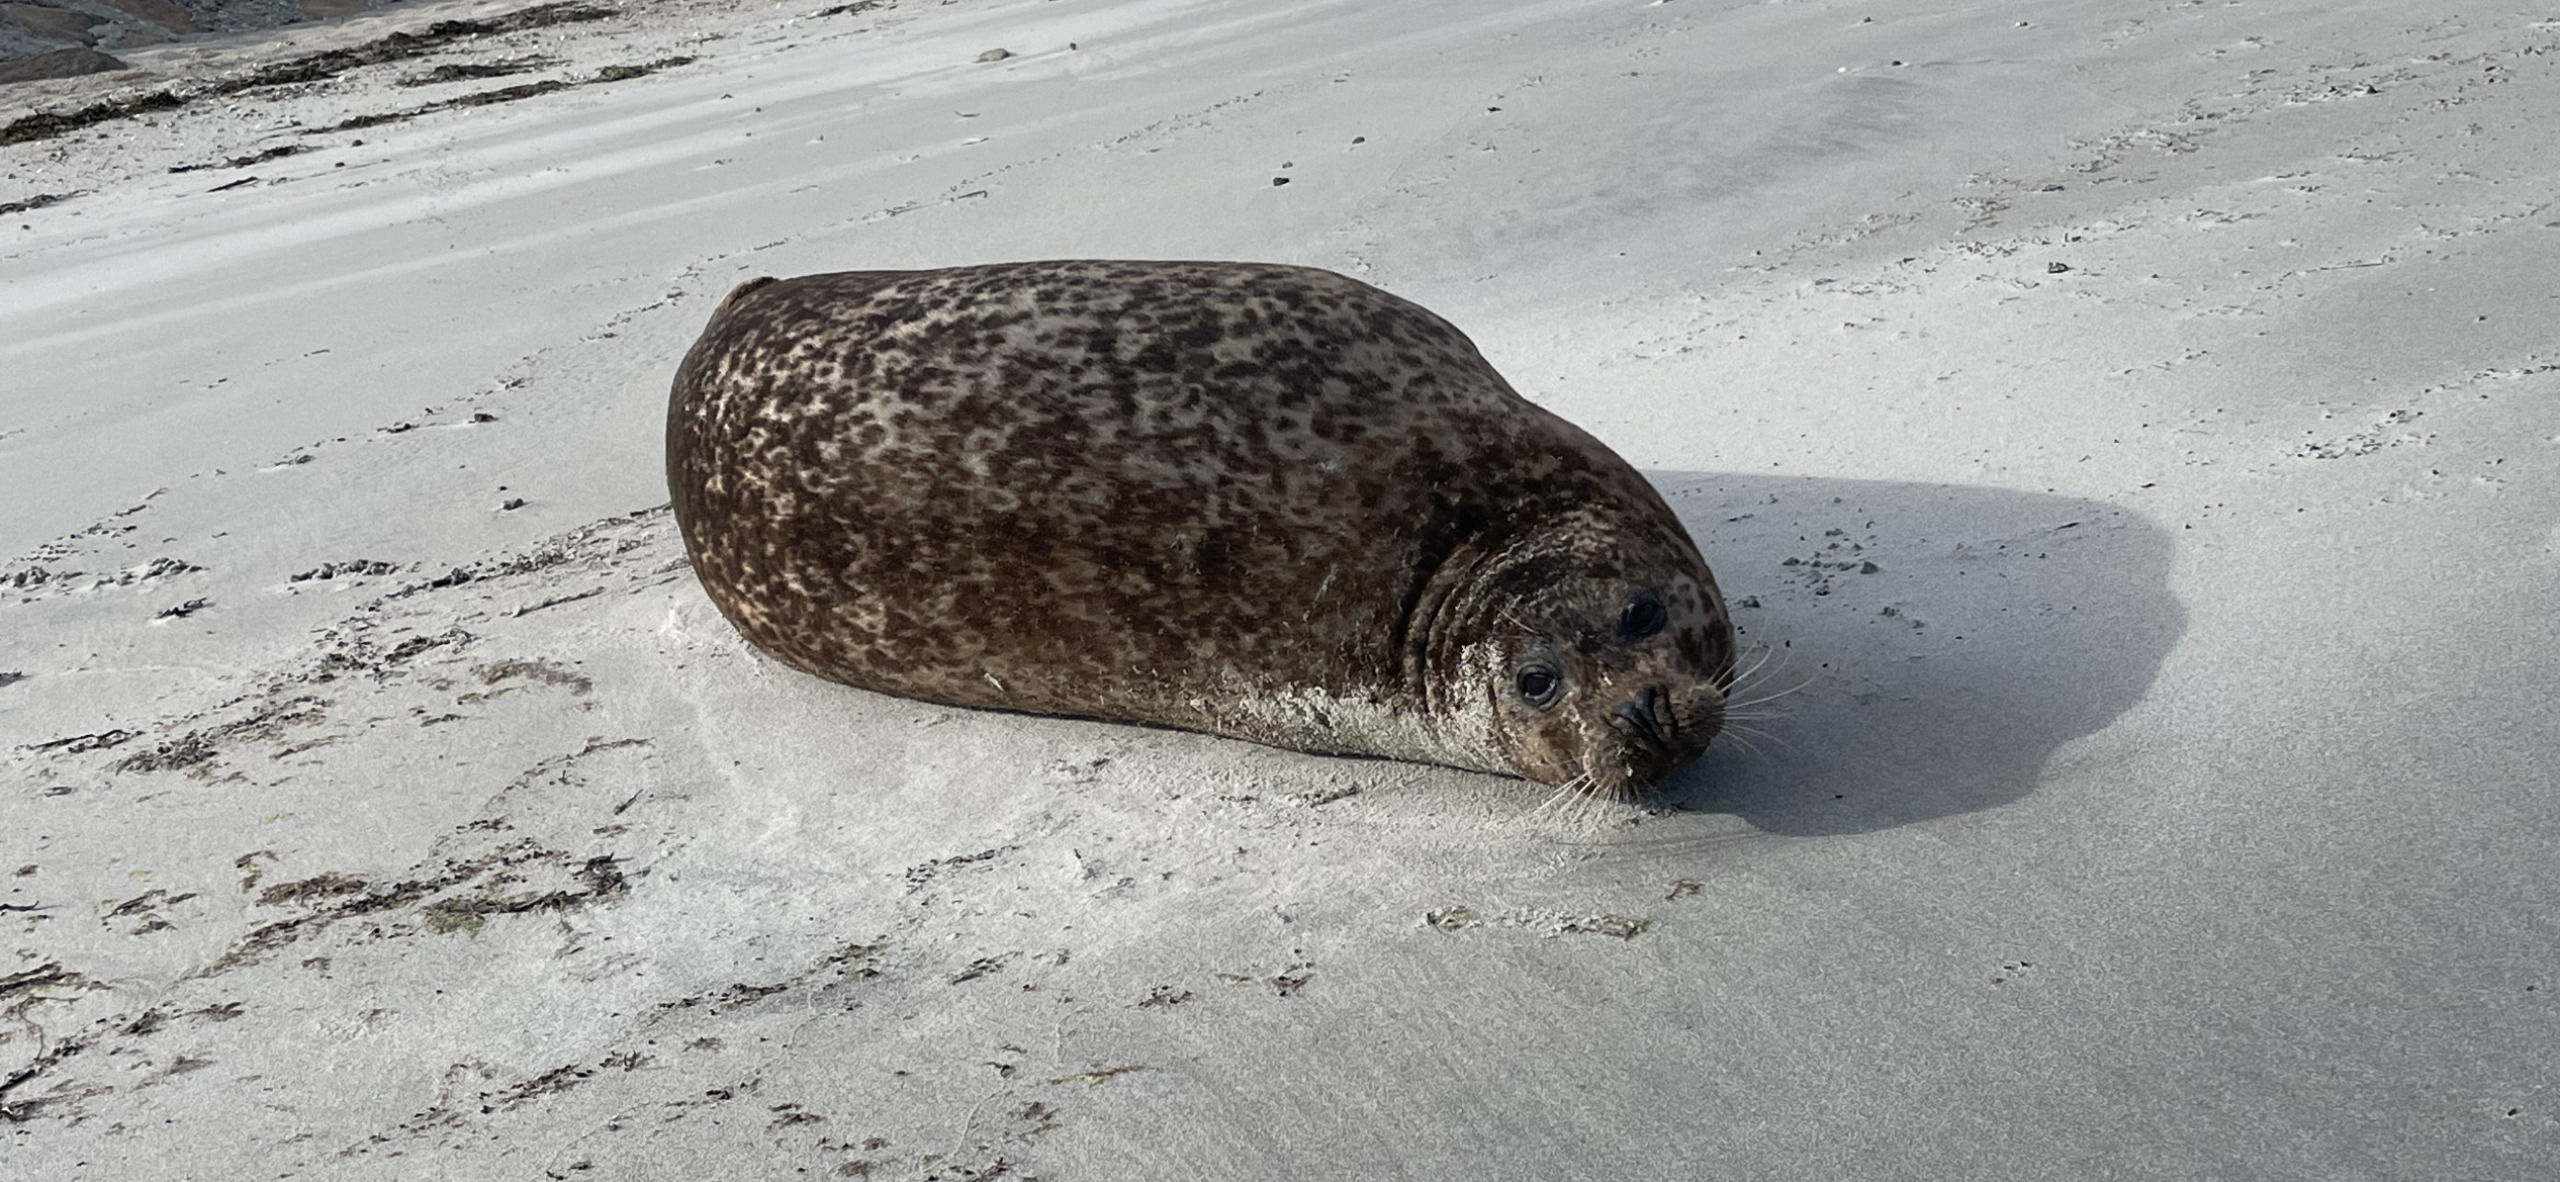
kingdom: Animalia
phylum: Chordata
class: Mammalia
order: Carnivora
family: Phocidae
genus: Phoca
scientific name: Phoca vitulina
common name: Spættet sæl
